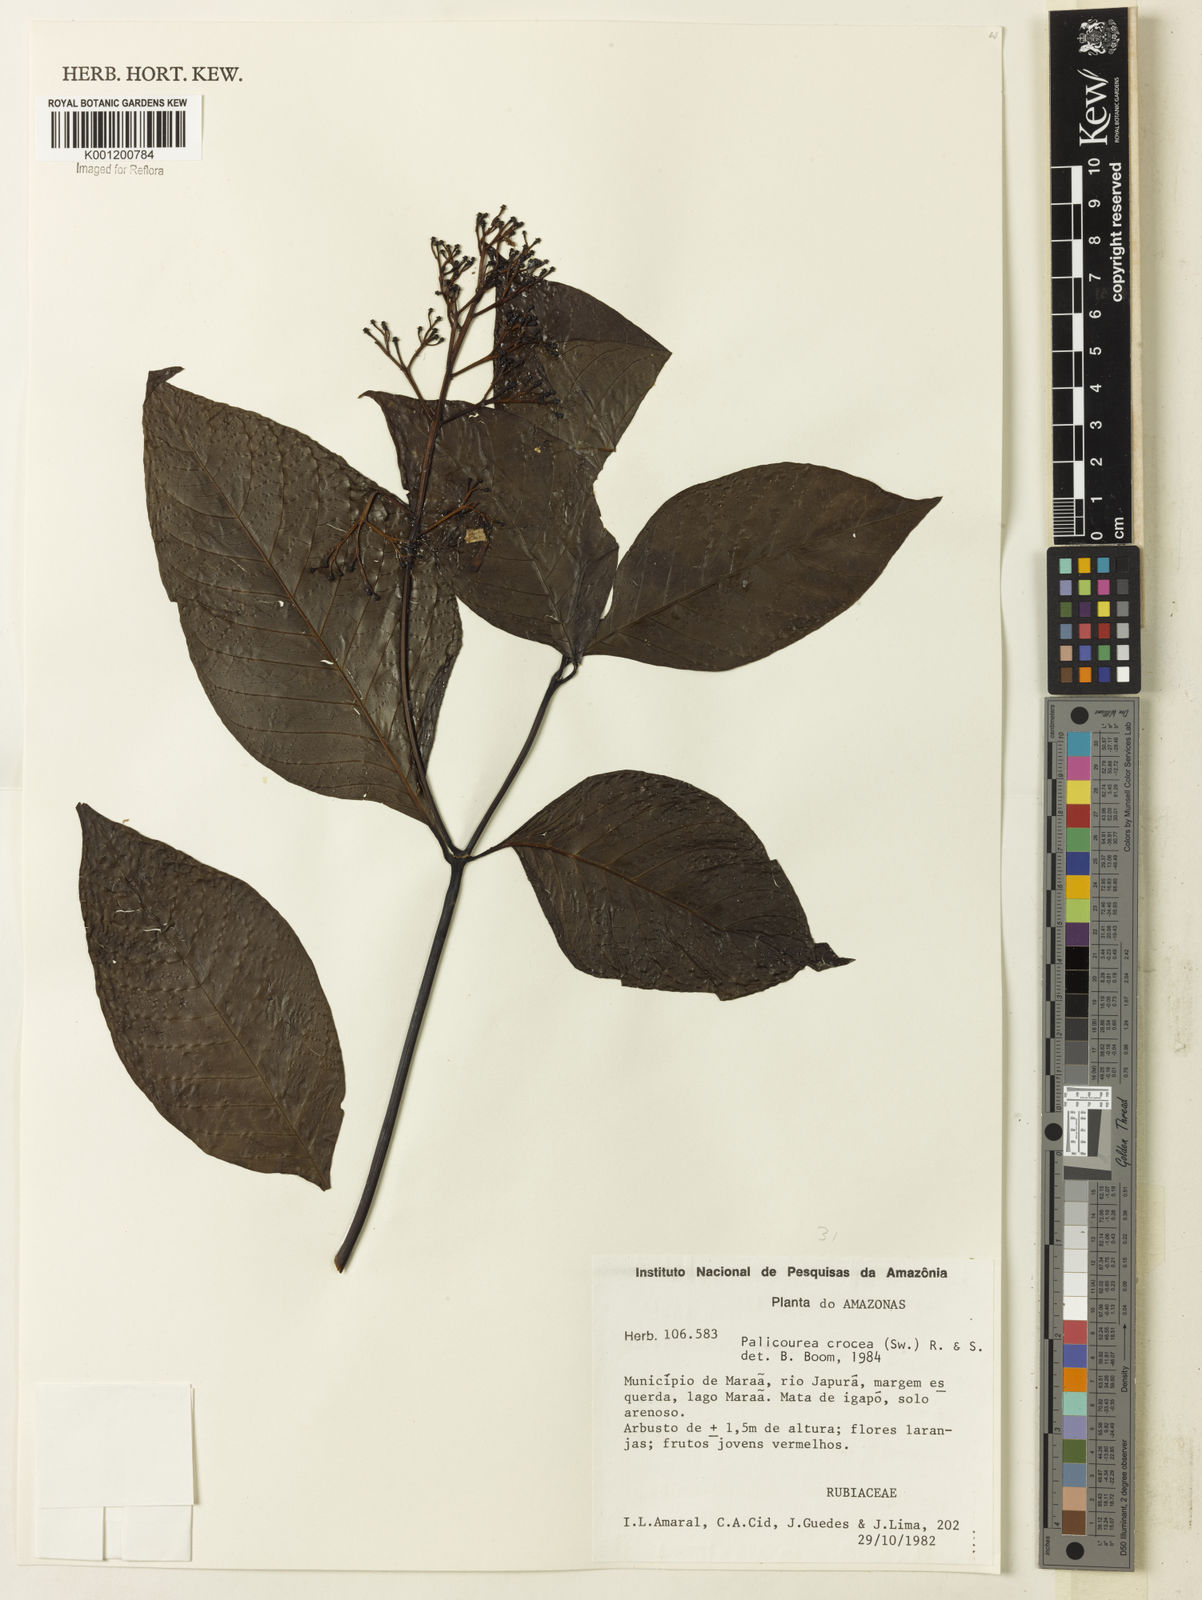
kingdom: Plantae
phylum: Tracheophyta
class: Magnoliopsida
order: Gentianales
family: Rubiaceae
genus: Palicourea
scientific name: Palicourea crocea
